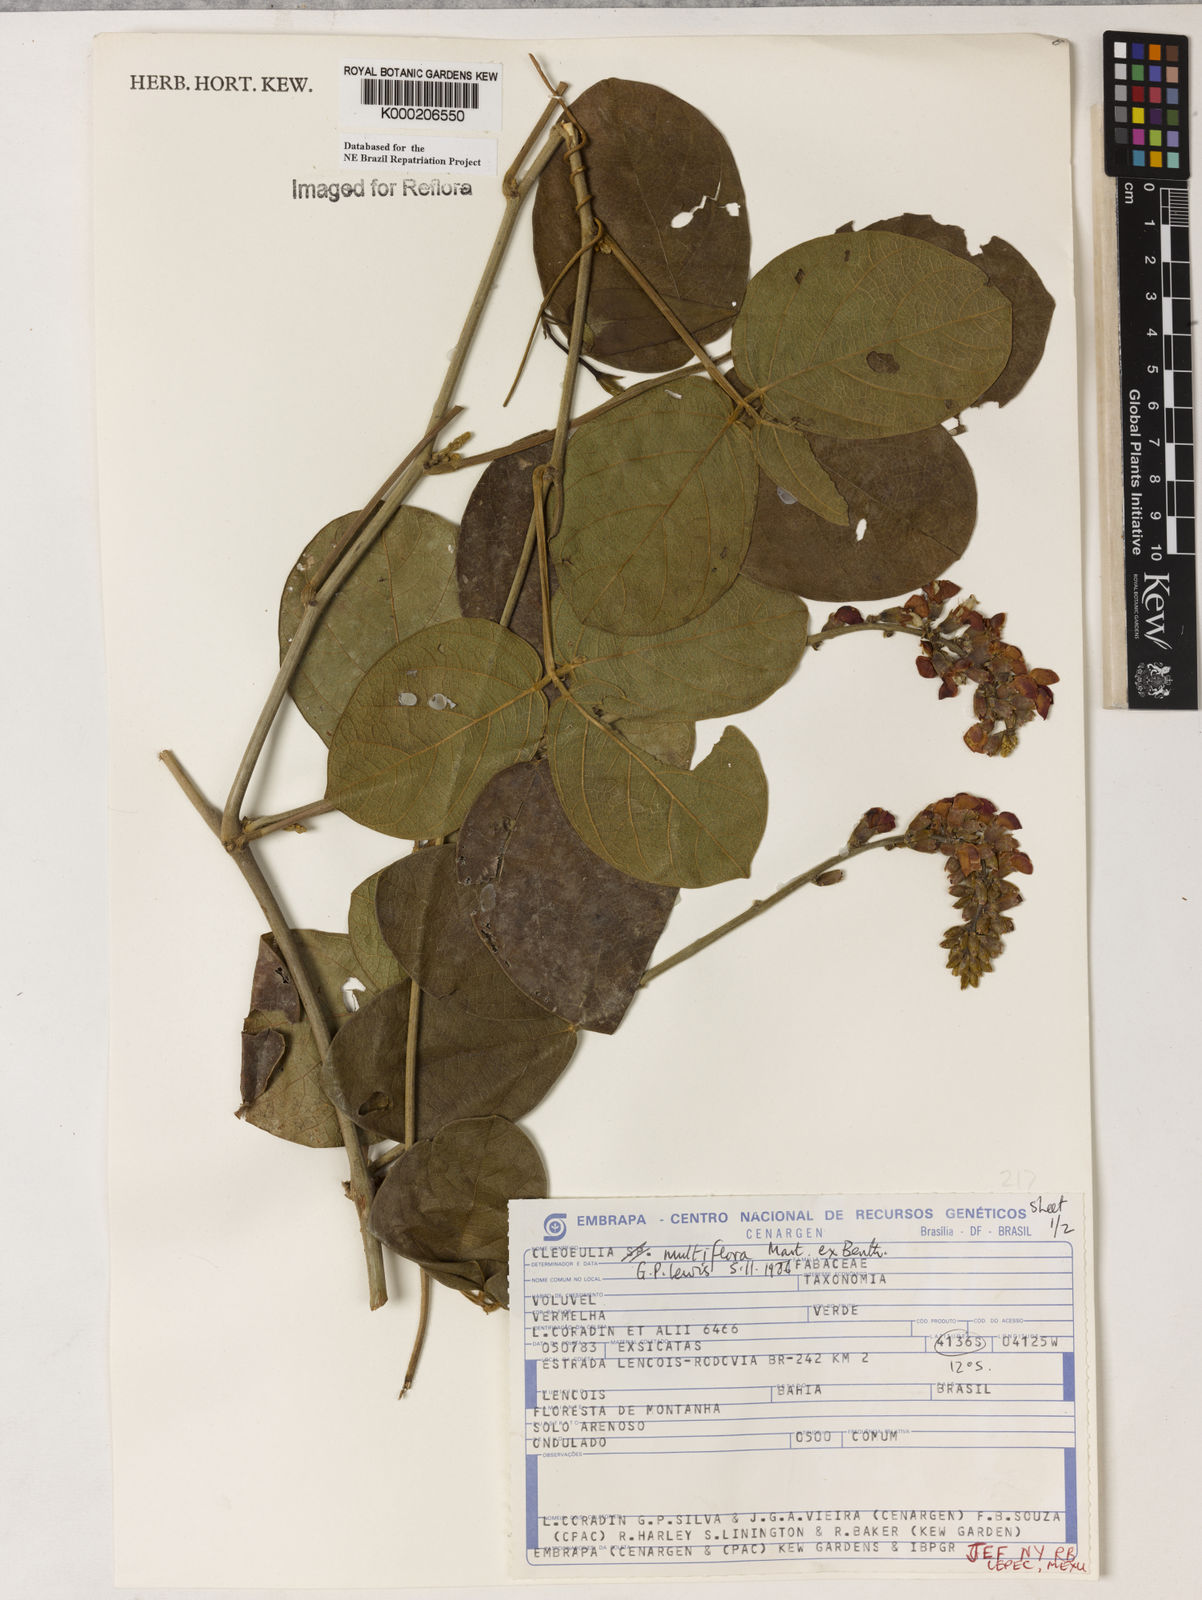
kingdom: Plantae
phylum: Tracheophyta
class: Magnoliopsida
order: Fabales
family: Fabaceae
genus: Cleobulia
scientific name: Cleobulia coccinea
